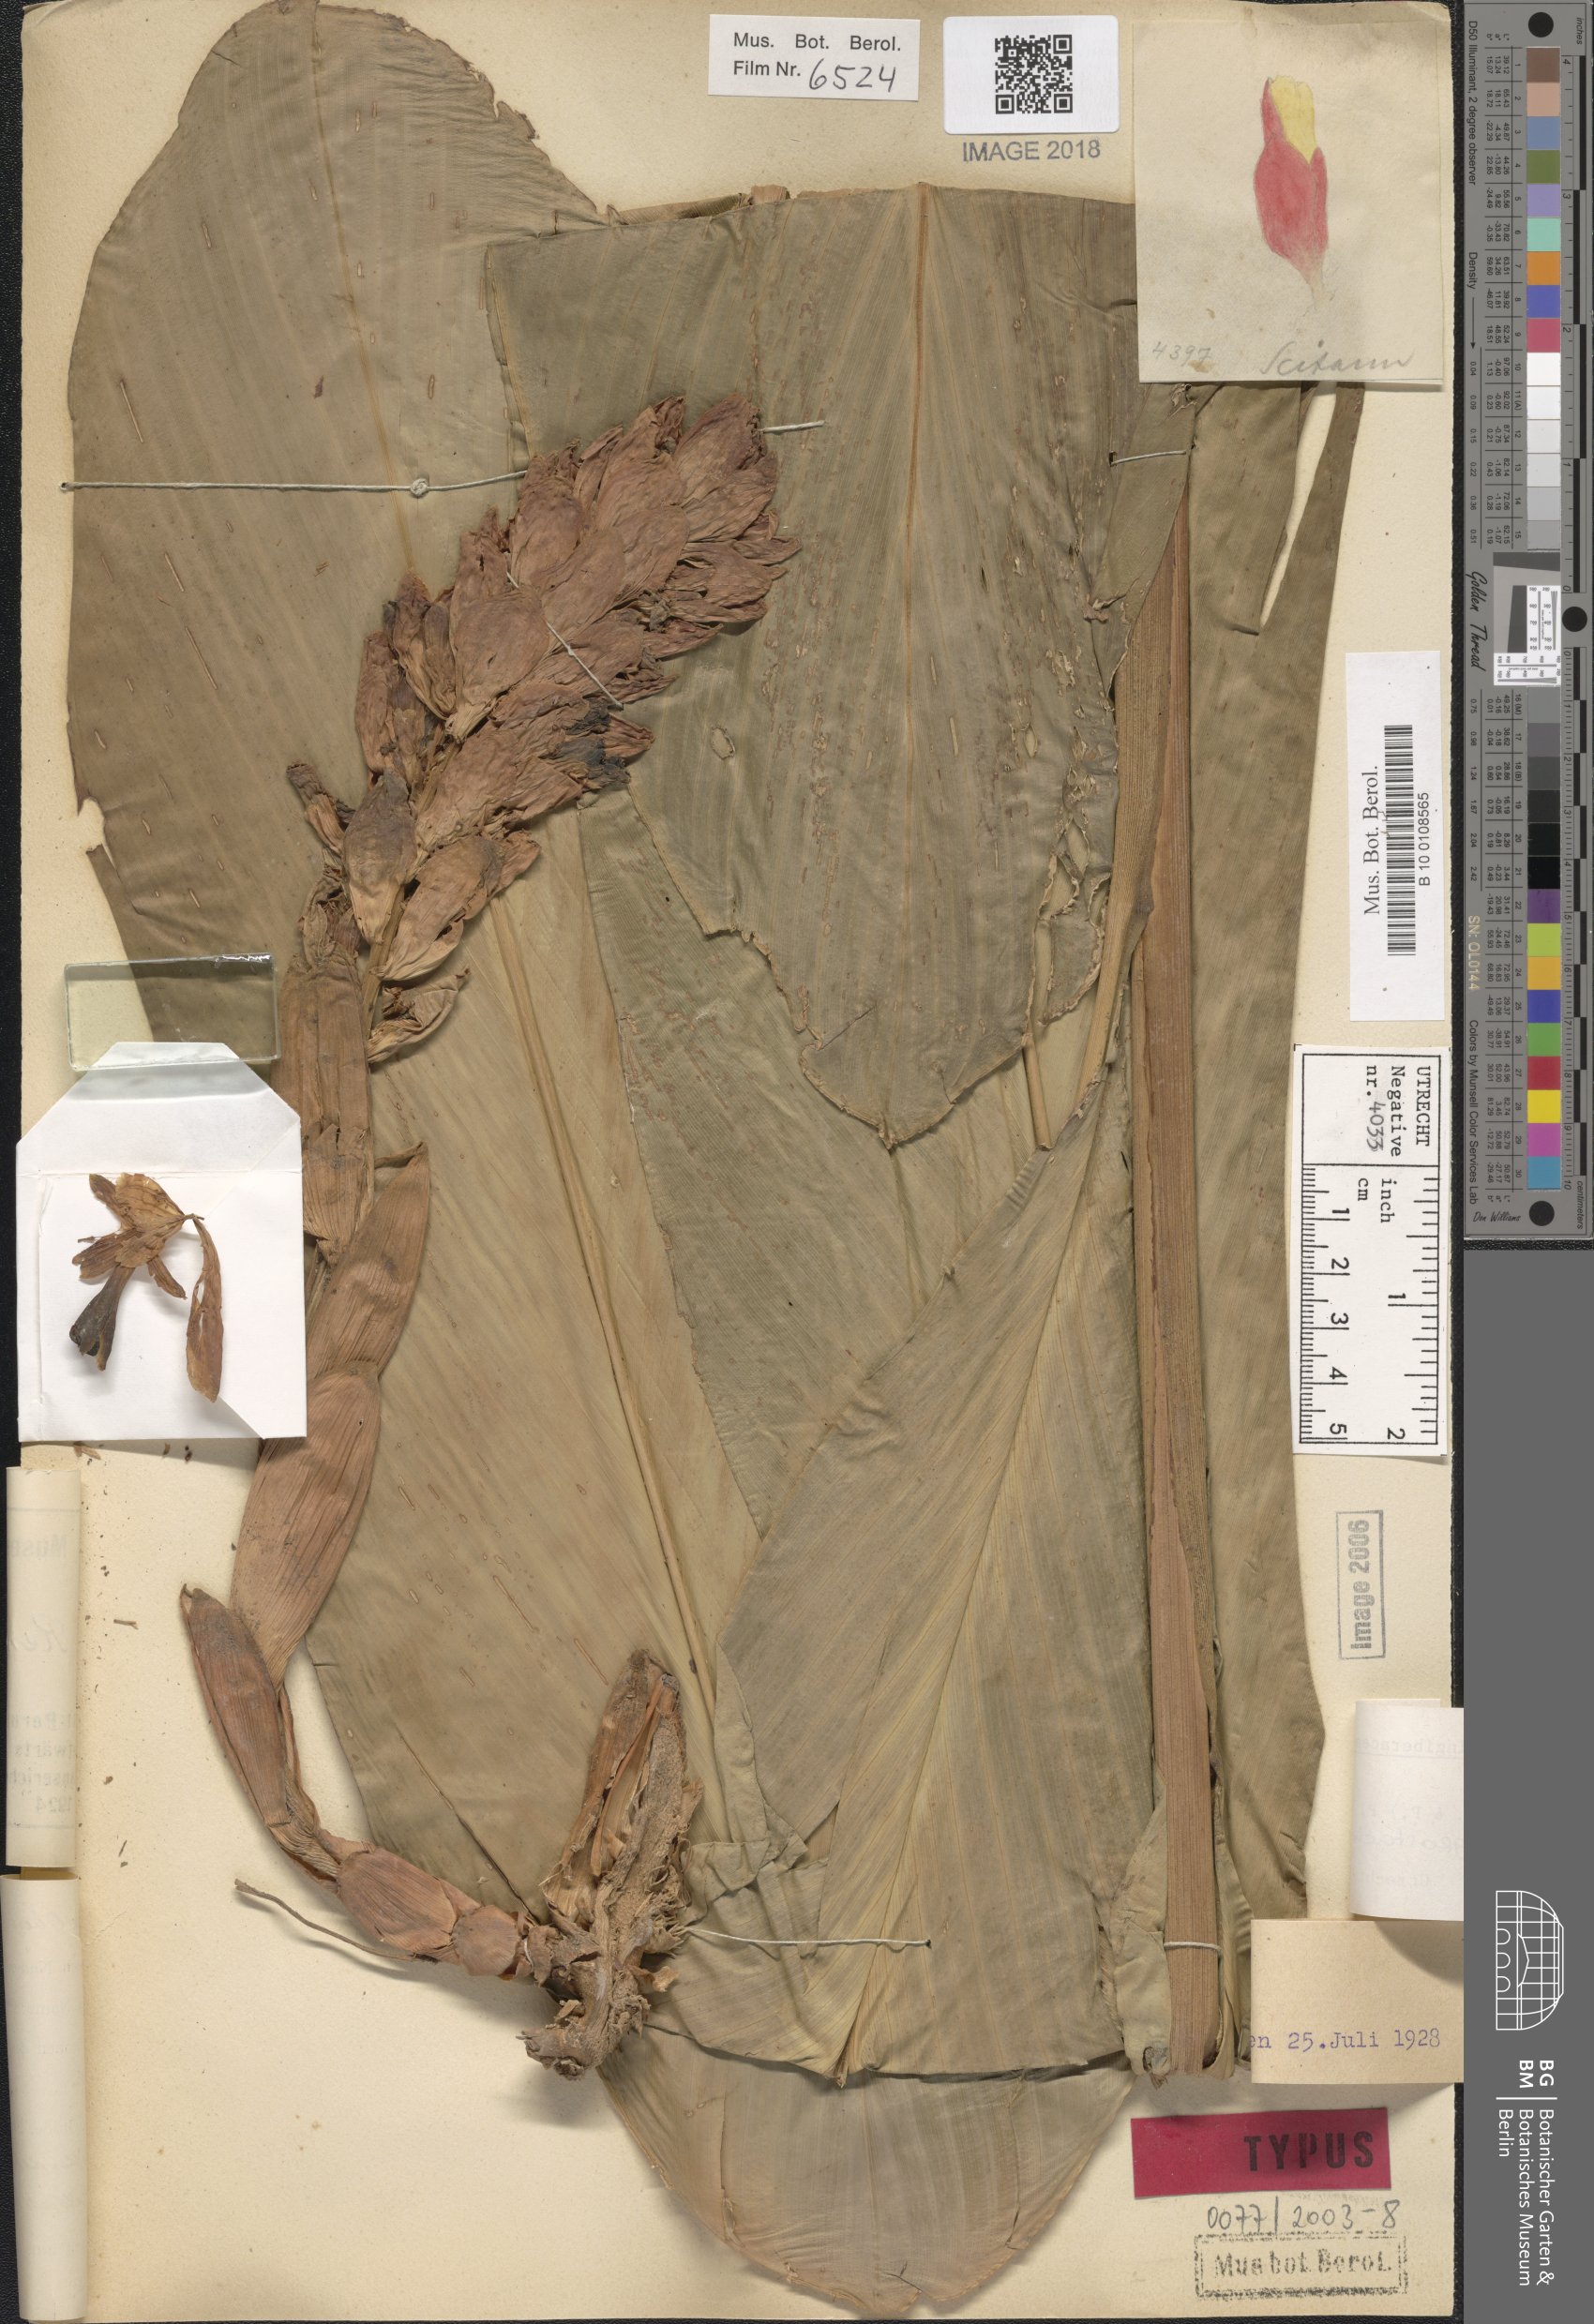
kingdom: Plantae
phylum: Tracheophyta
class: Liliopsida
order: Zingiberales
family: Zingiberaceae
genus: Renealmia
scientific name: Renealmia thyrsoidea
